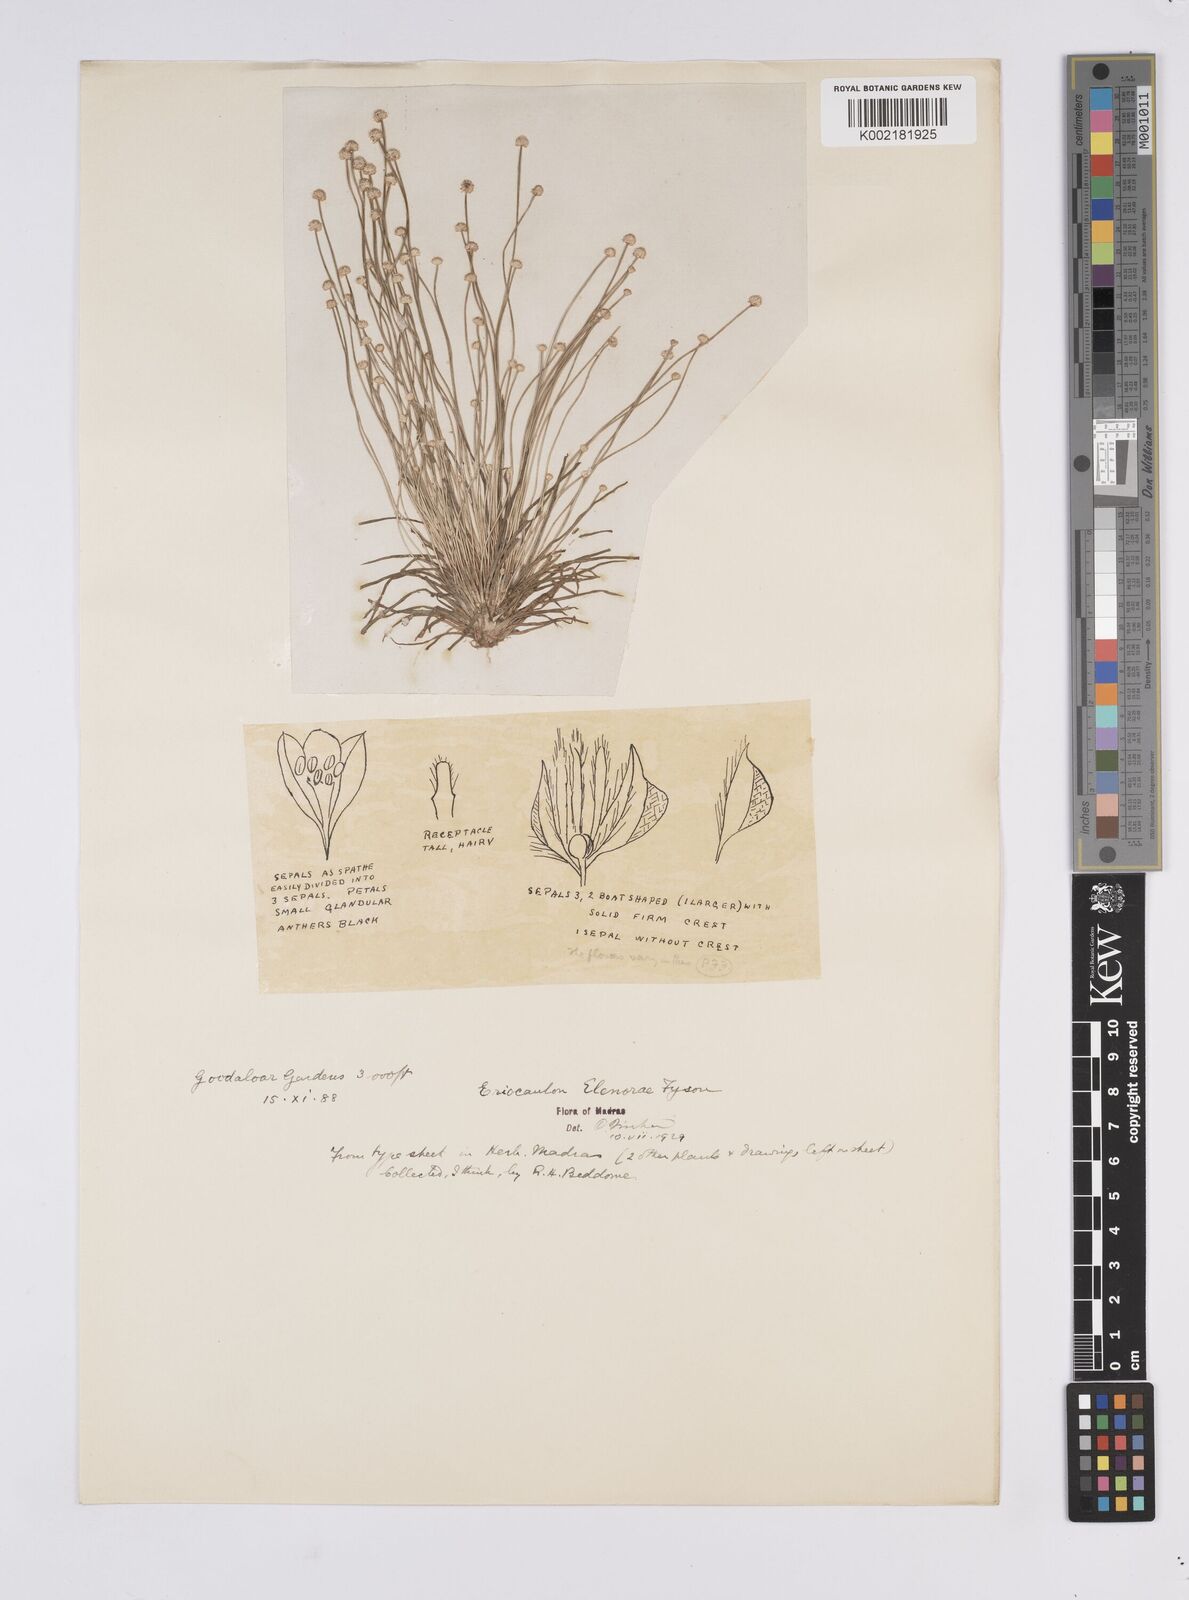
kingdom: Plantae
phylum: Tracheophyta
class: Liliopsida
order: Poales
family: Eriocaulaceae
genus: Eriocaulon
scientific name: Eriocaulon elenorae
